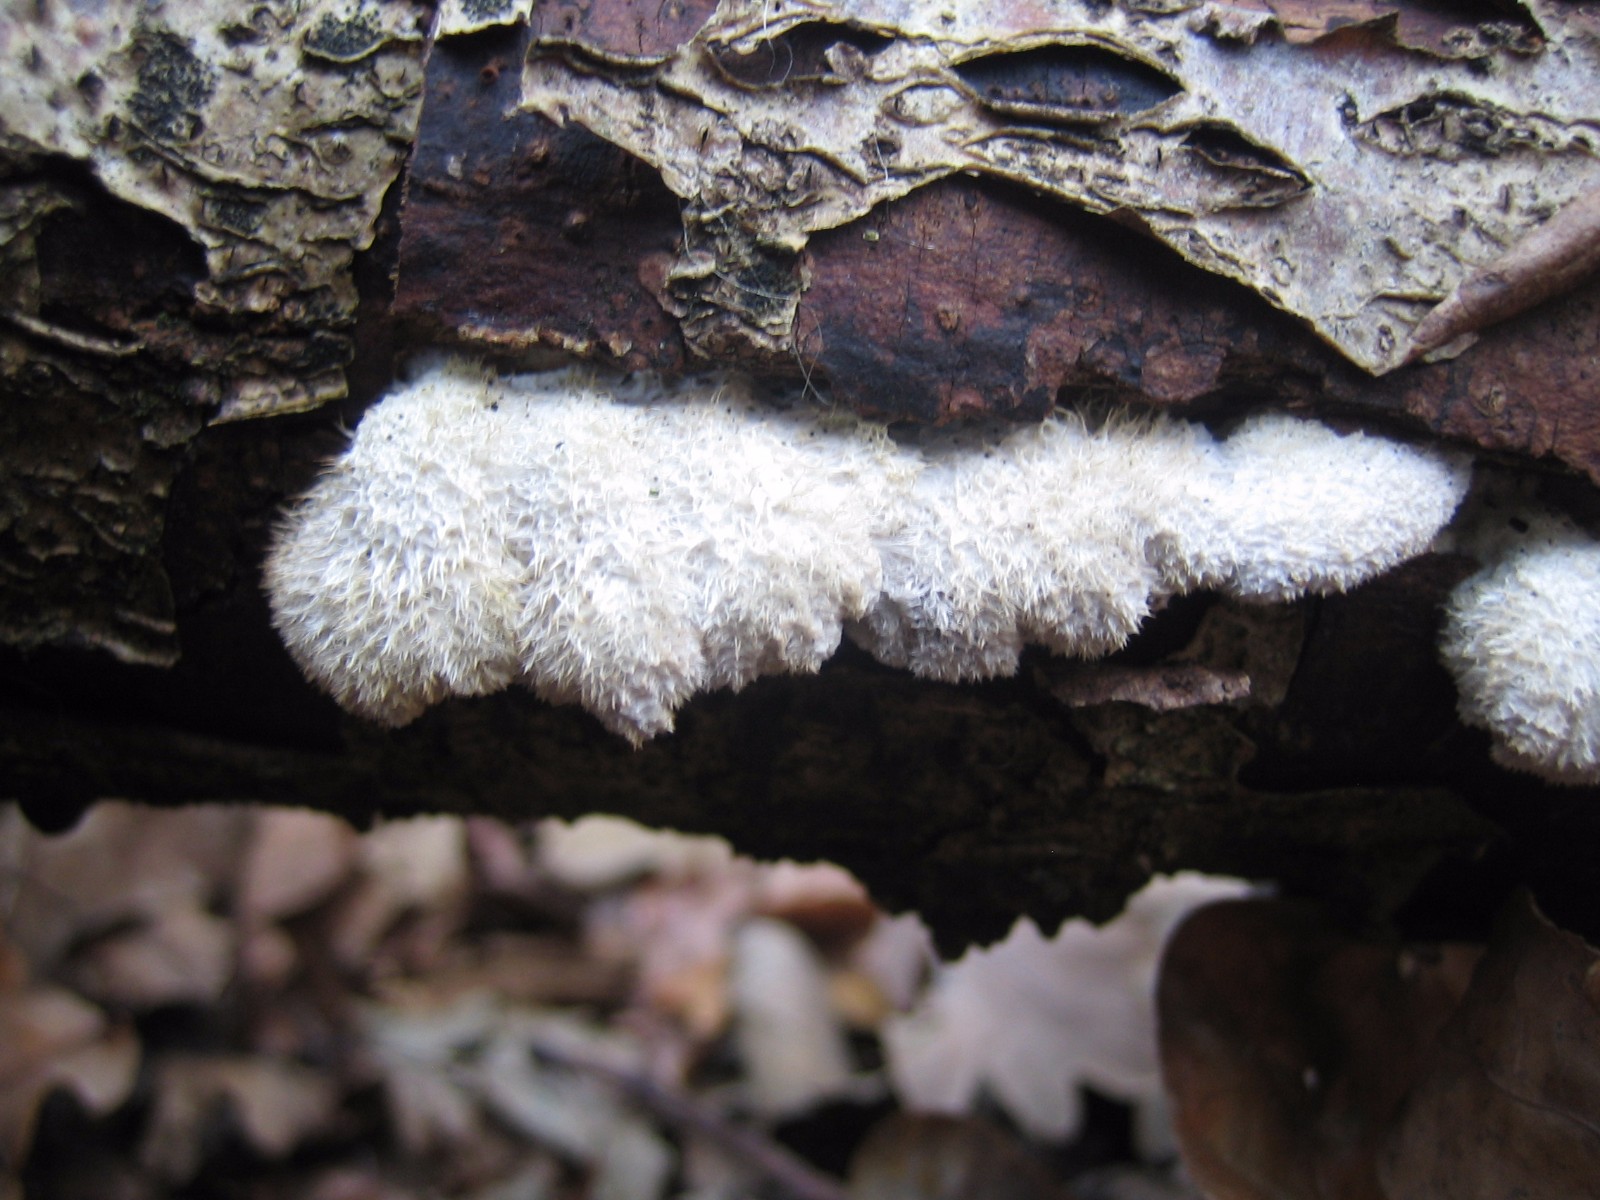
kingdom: Fungi
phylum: Basidiomycota
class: Agaricomycetes
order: Agaricales
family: Schizophyllaceae
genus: Schizophyllum
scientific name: Schizophyllum commune
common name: kløvblad
